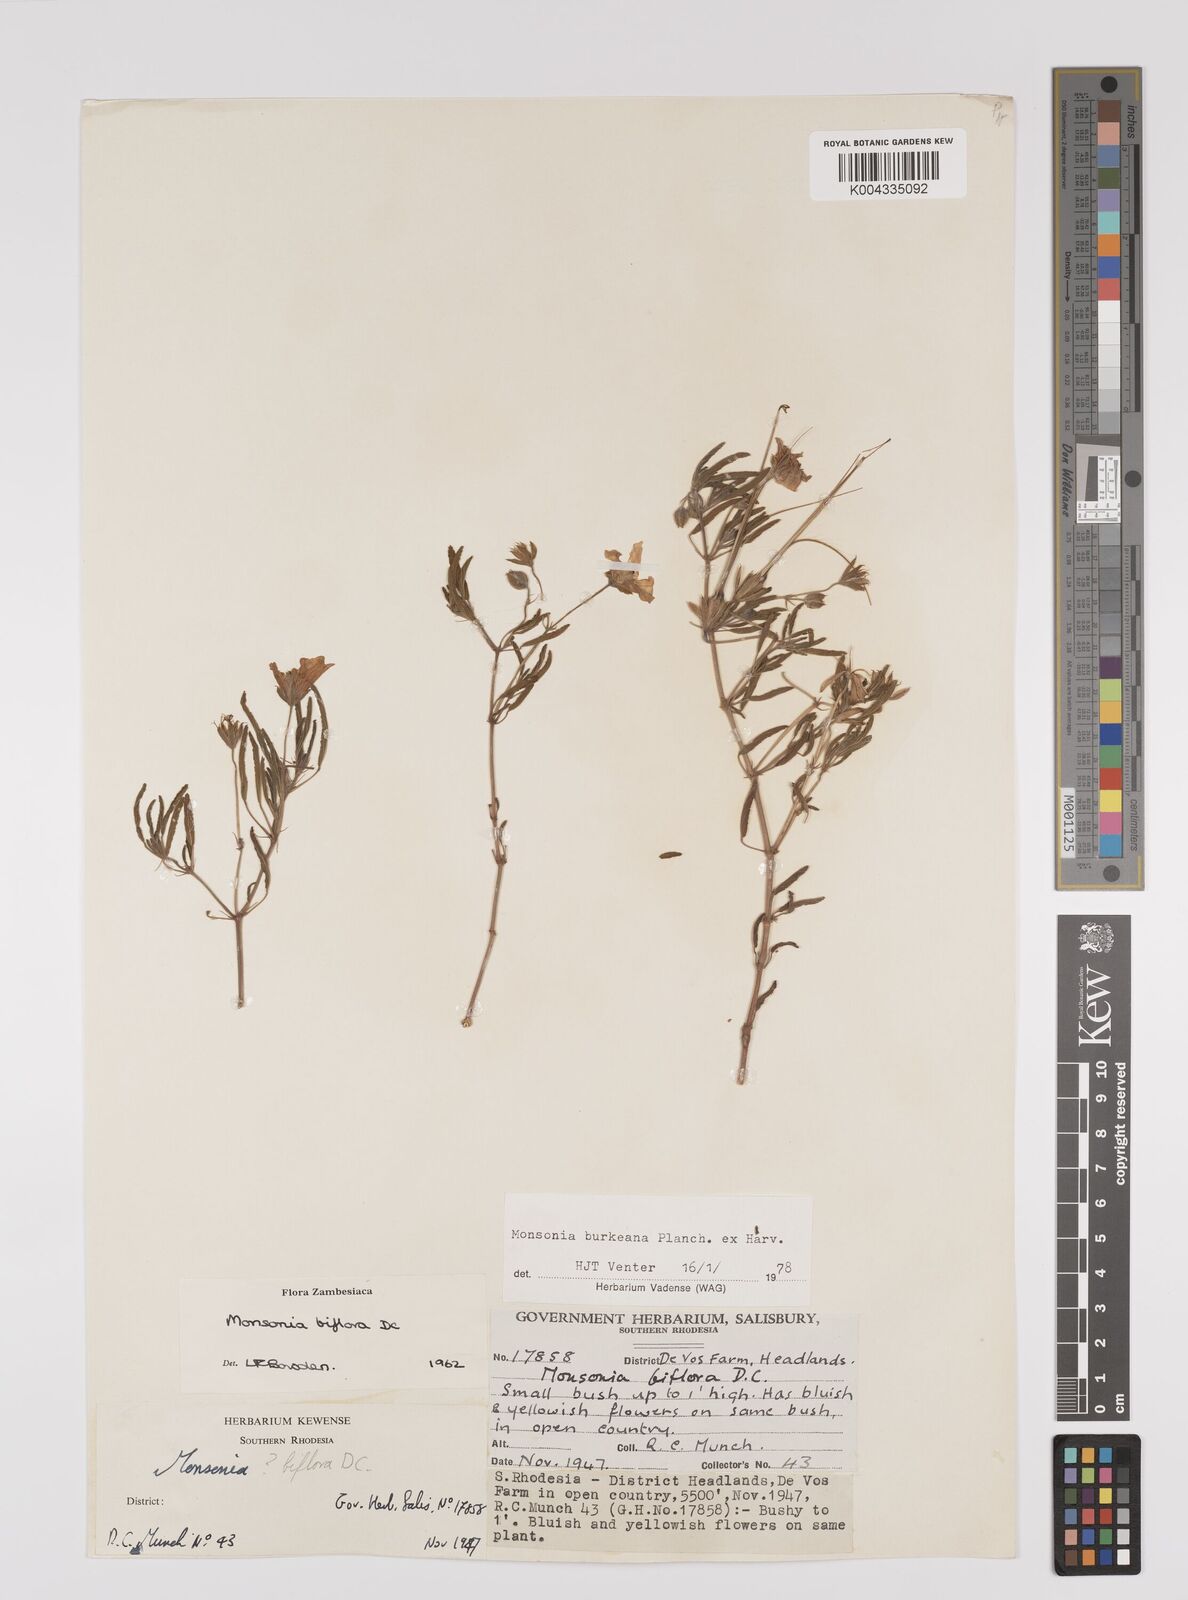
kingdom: Plantae
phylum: Tracheophyta
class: Magnoliopsida
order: Geraniales
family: Geraniaceae
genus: Monsonia
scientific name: Monsonia biflora
